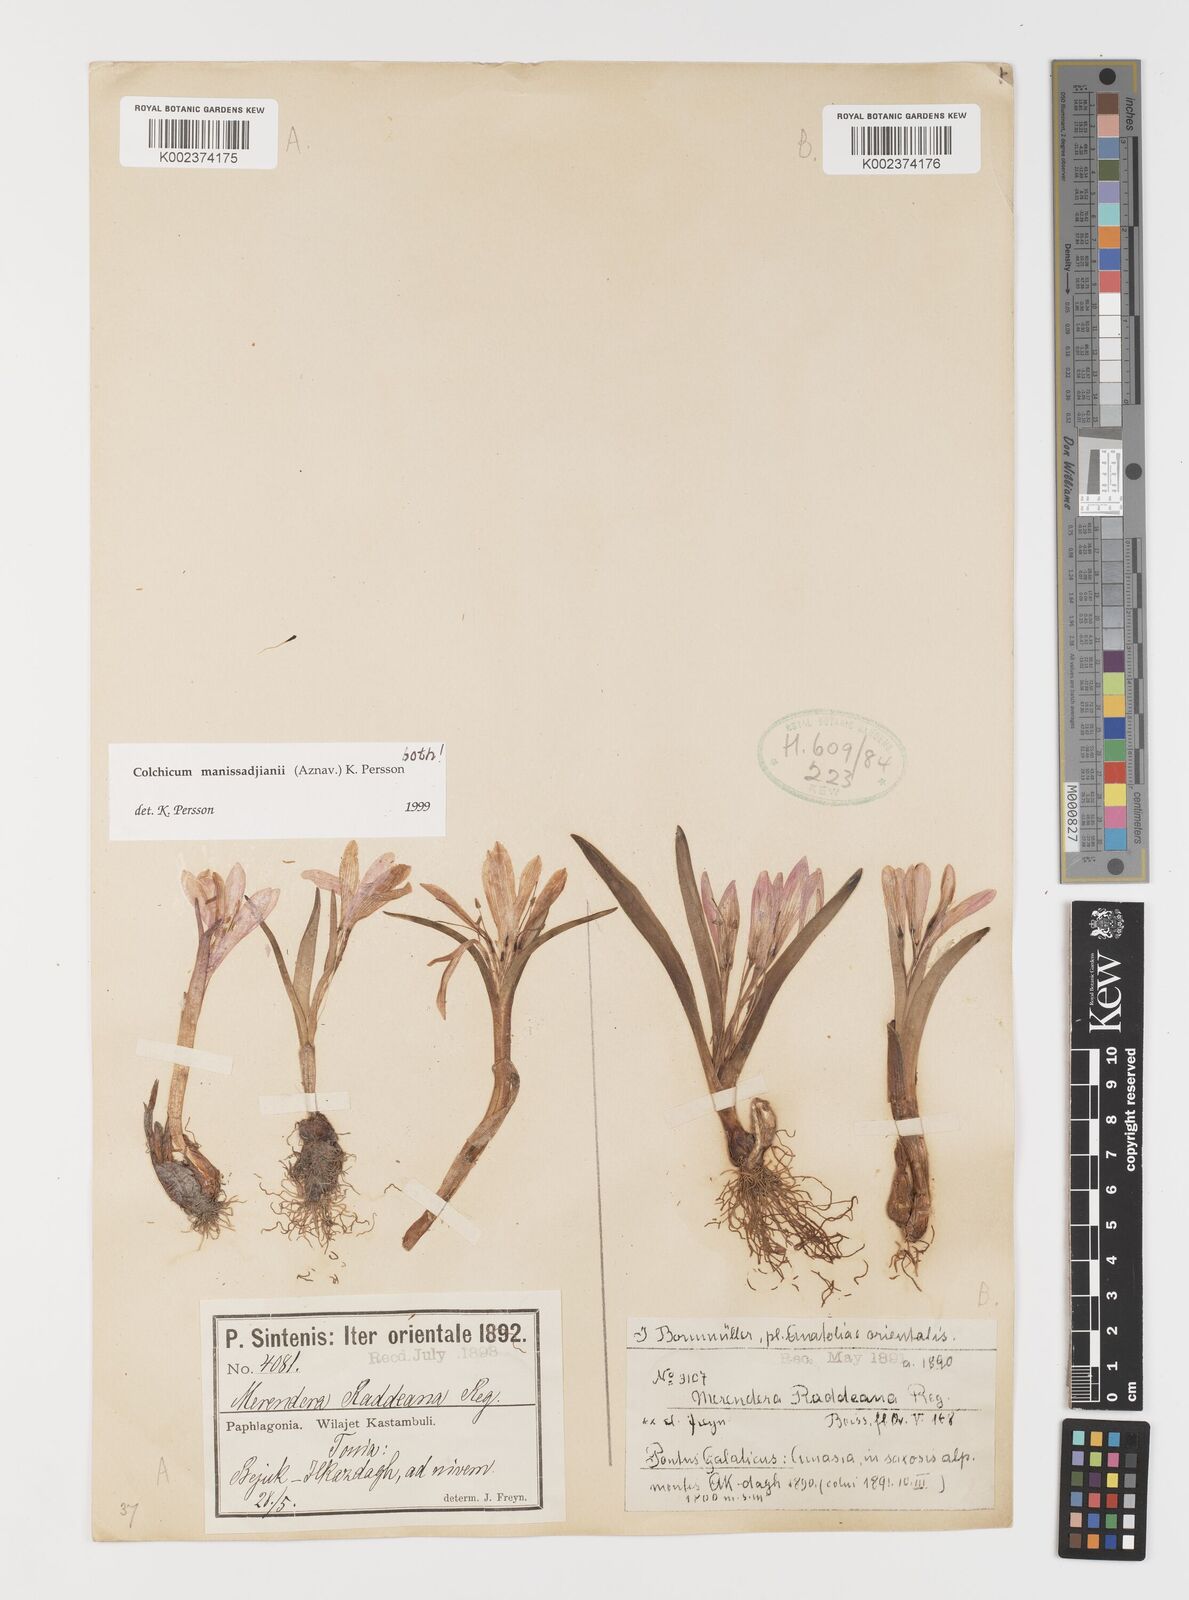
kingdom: Plantae
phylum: Tracheophyta
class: Liliopsida
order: Liliales
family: Colchicaceae
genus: Colchicum
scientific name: Colchicum manissadjianii
